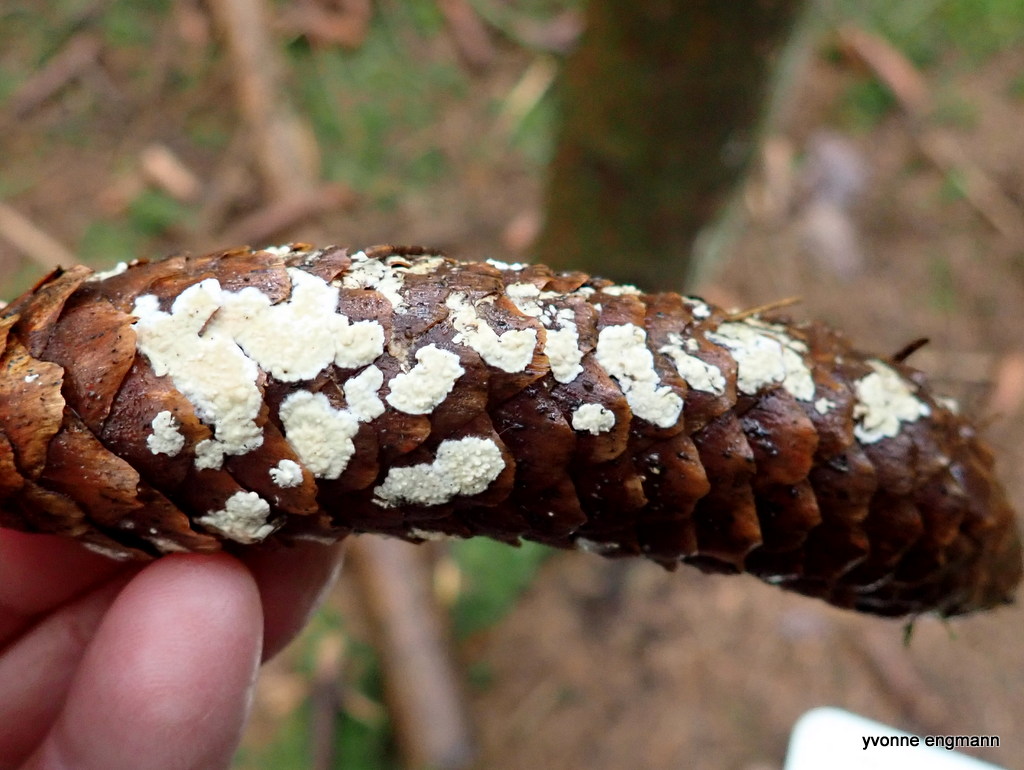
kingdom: Fungi
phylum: Basidiomycota
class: Agaricomycetes
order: Corticiales
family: Corticiaceae
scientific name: Corticiaceae
